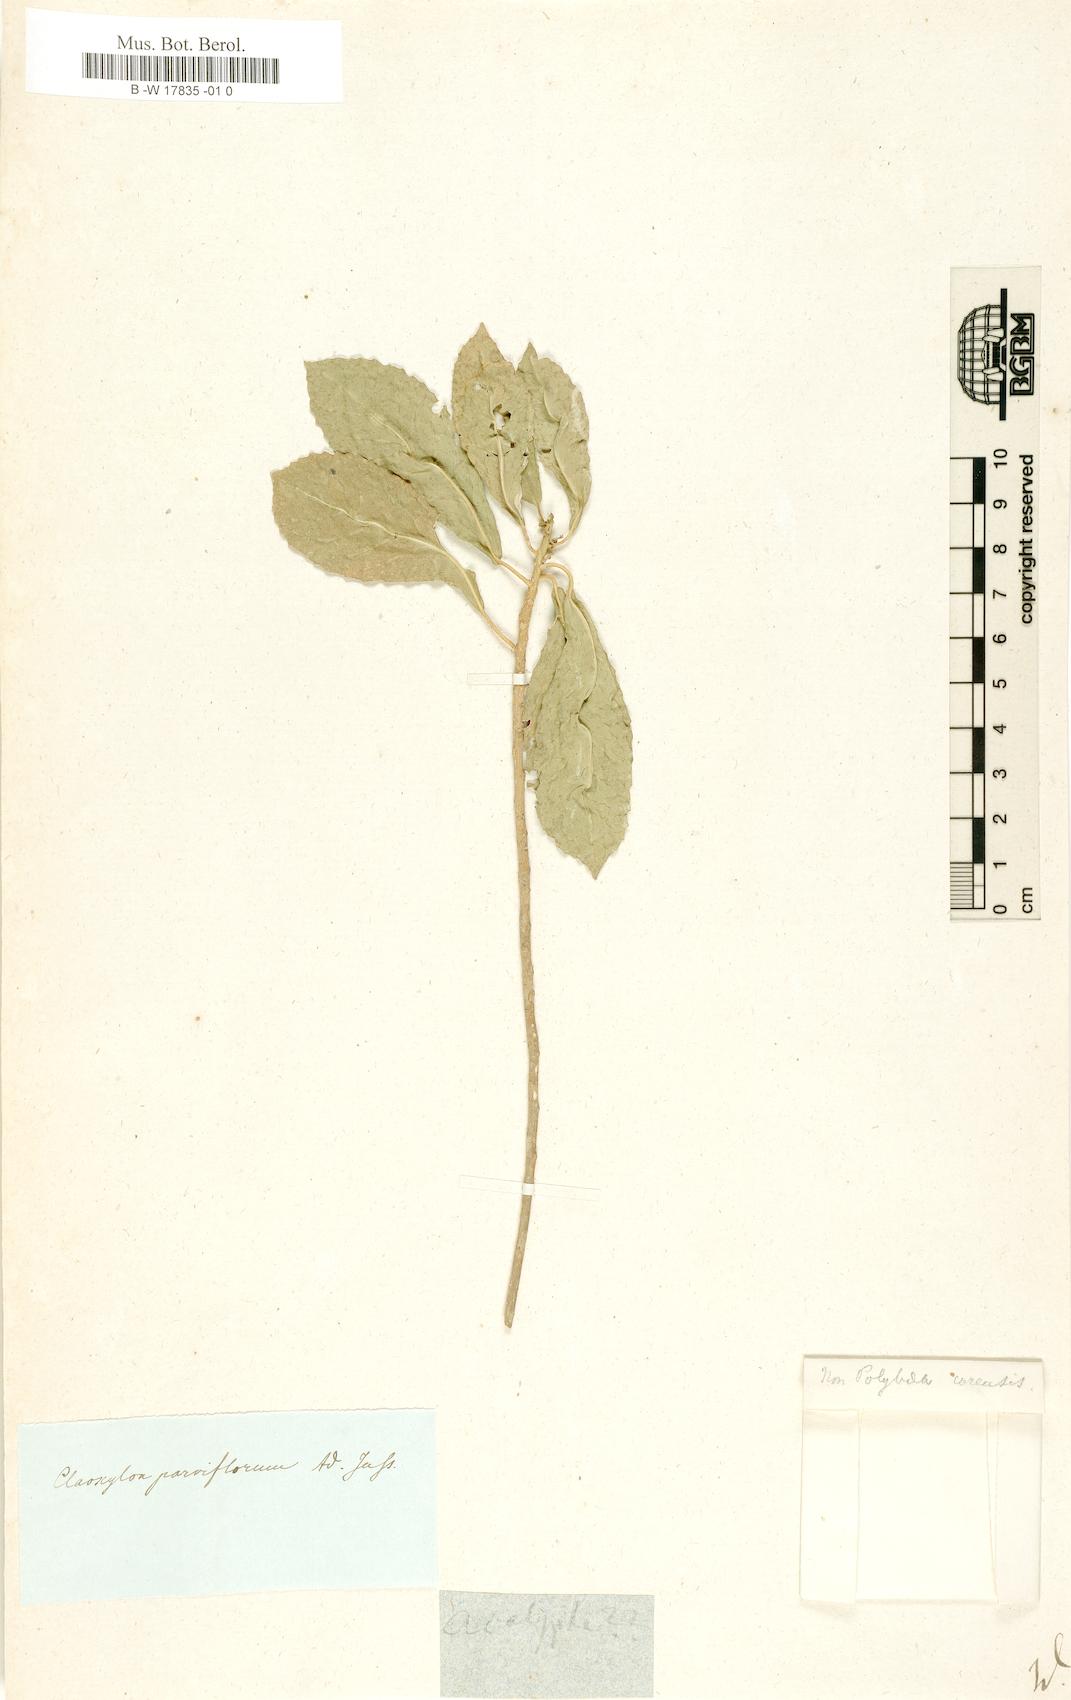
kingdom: Plantae
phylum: Tracheophyta
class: Magnoliopsida
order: Malpighiales
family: Euphorbiaceae
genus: Acalypha
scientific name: Acalypha
